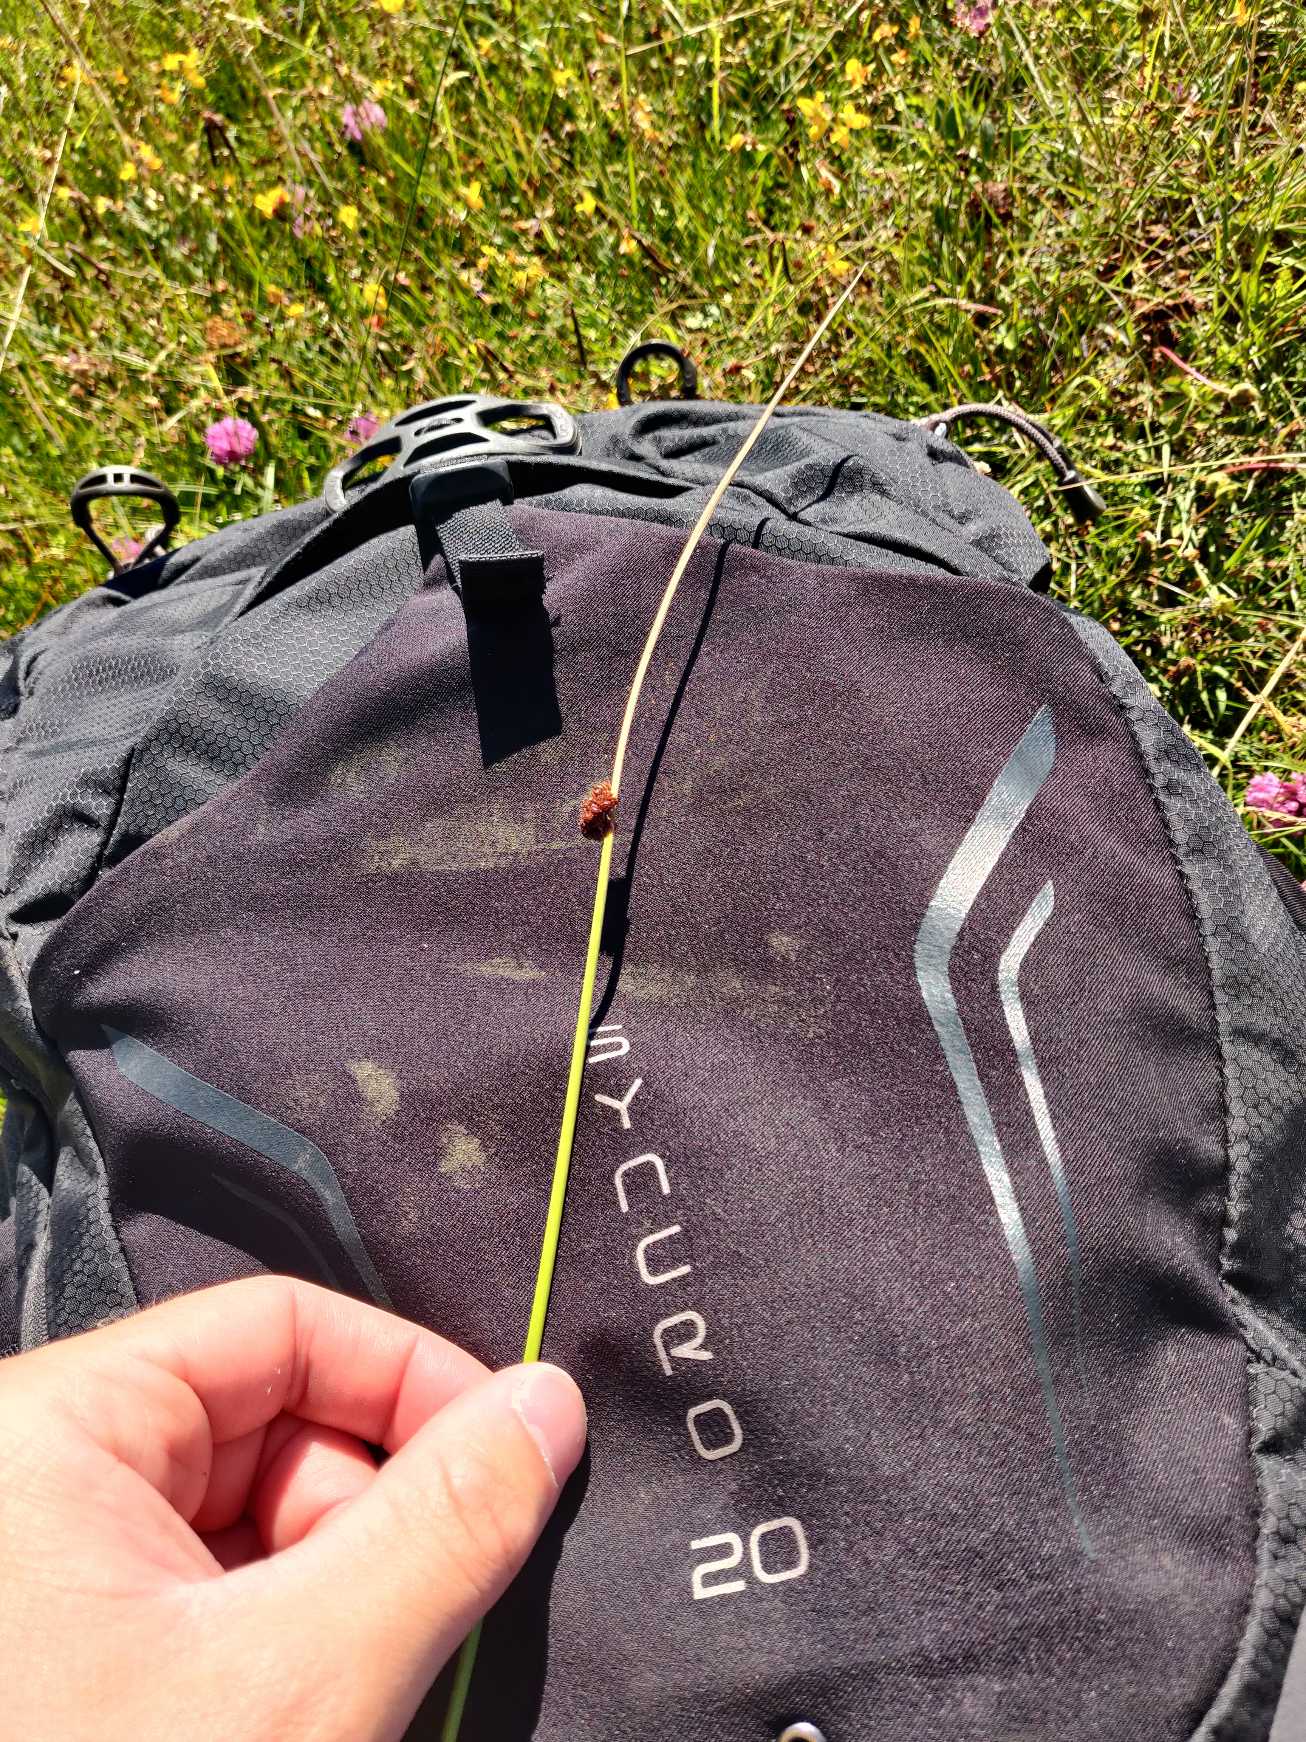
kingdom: Plantae
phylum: Tracheophyta
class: Liliopsida
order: Poales
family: Juncaceae
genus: Juncus
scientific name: Juncus conglomeratus
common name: Knop-siv
